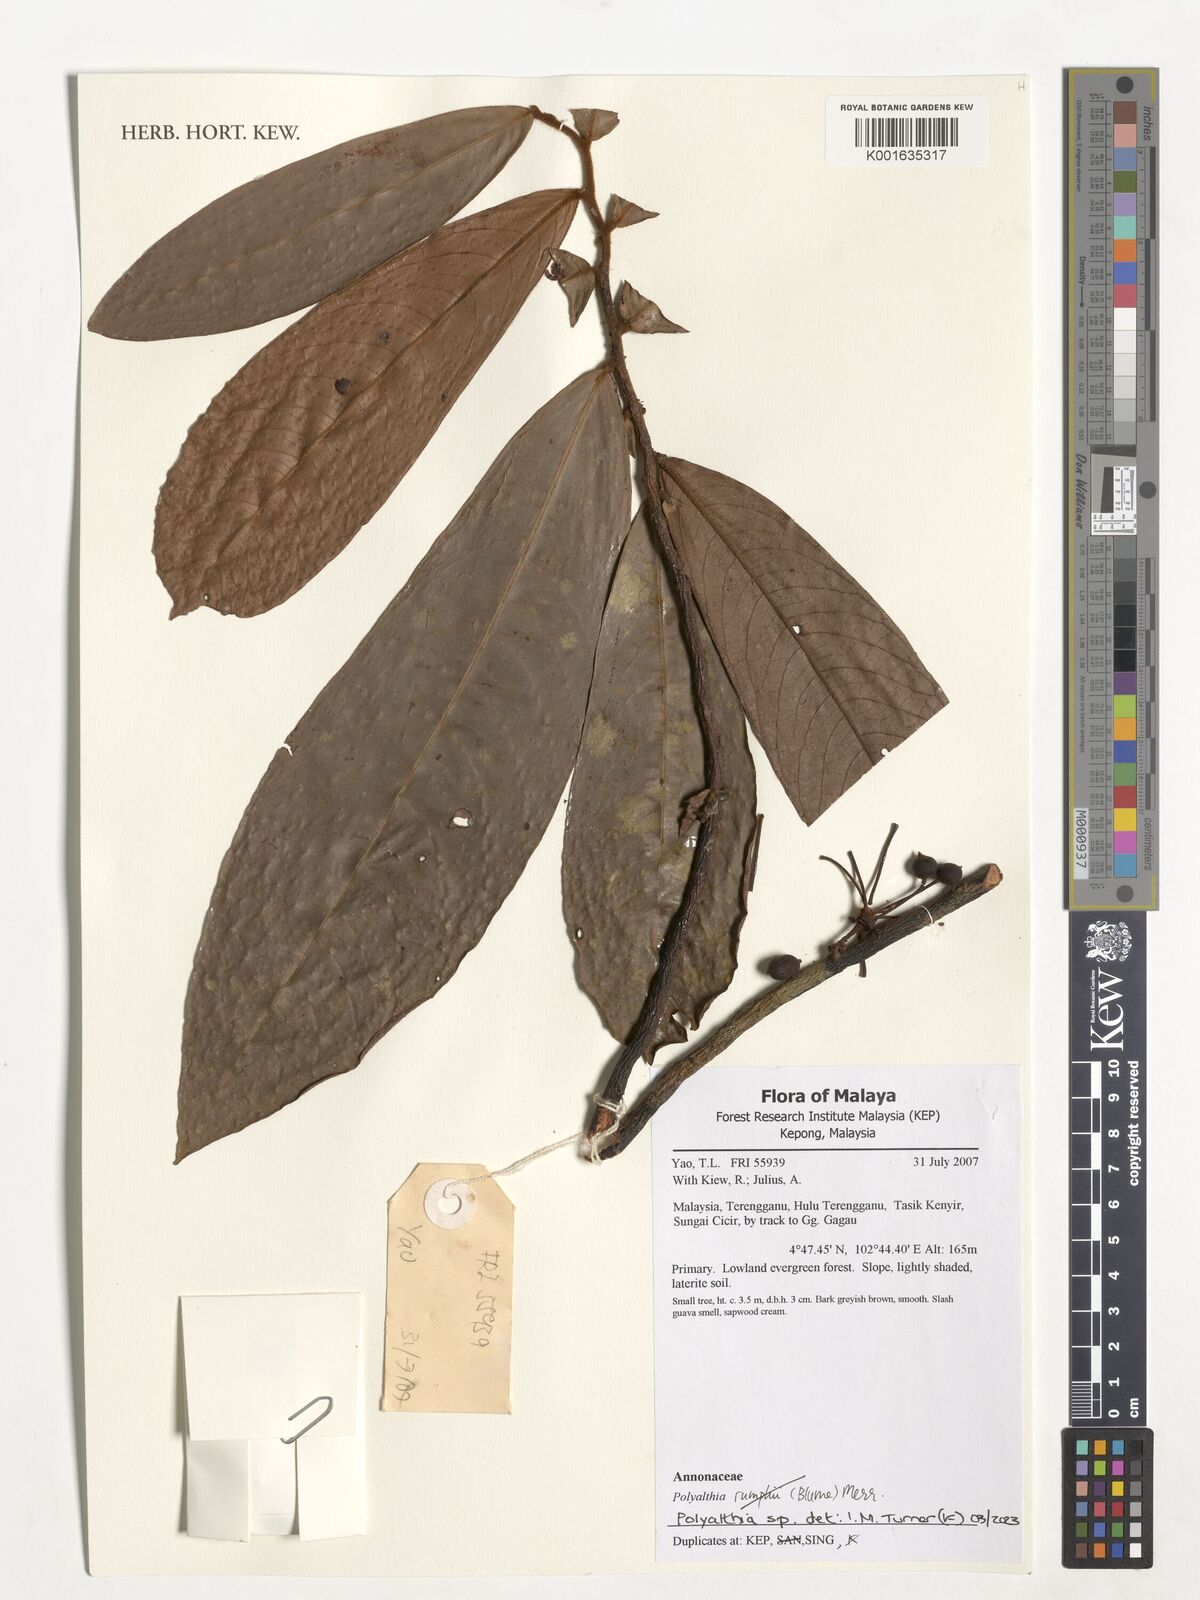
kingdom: Plantae
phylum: Tracheophyta
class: Magnoliopsida
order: Magnoliales
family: Annonaceae
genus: Polyalthia
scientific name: Polyalthia
